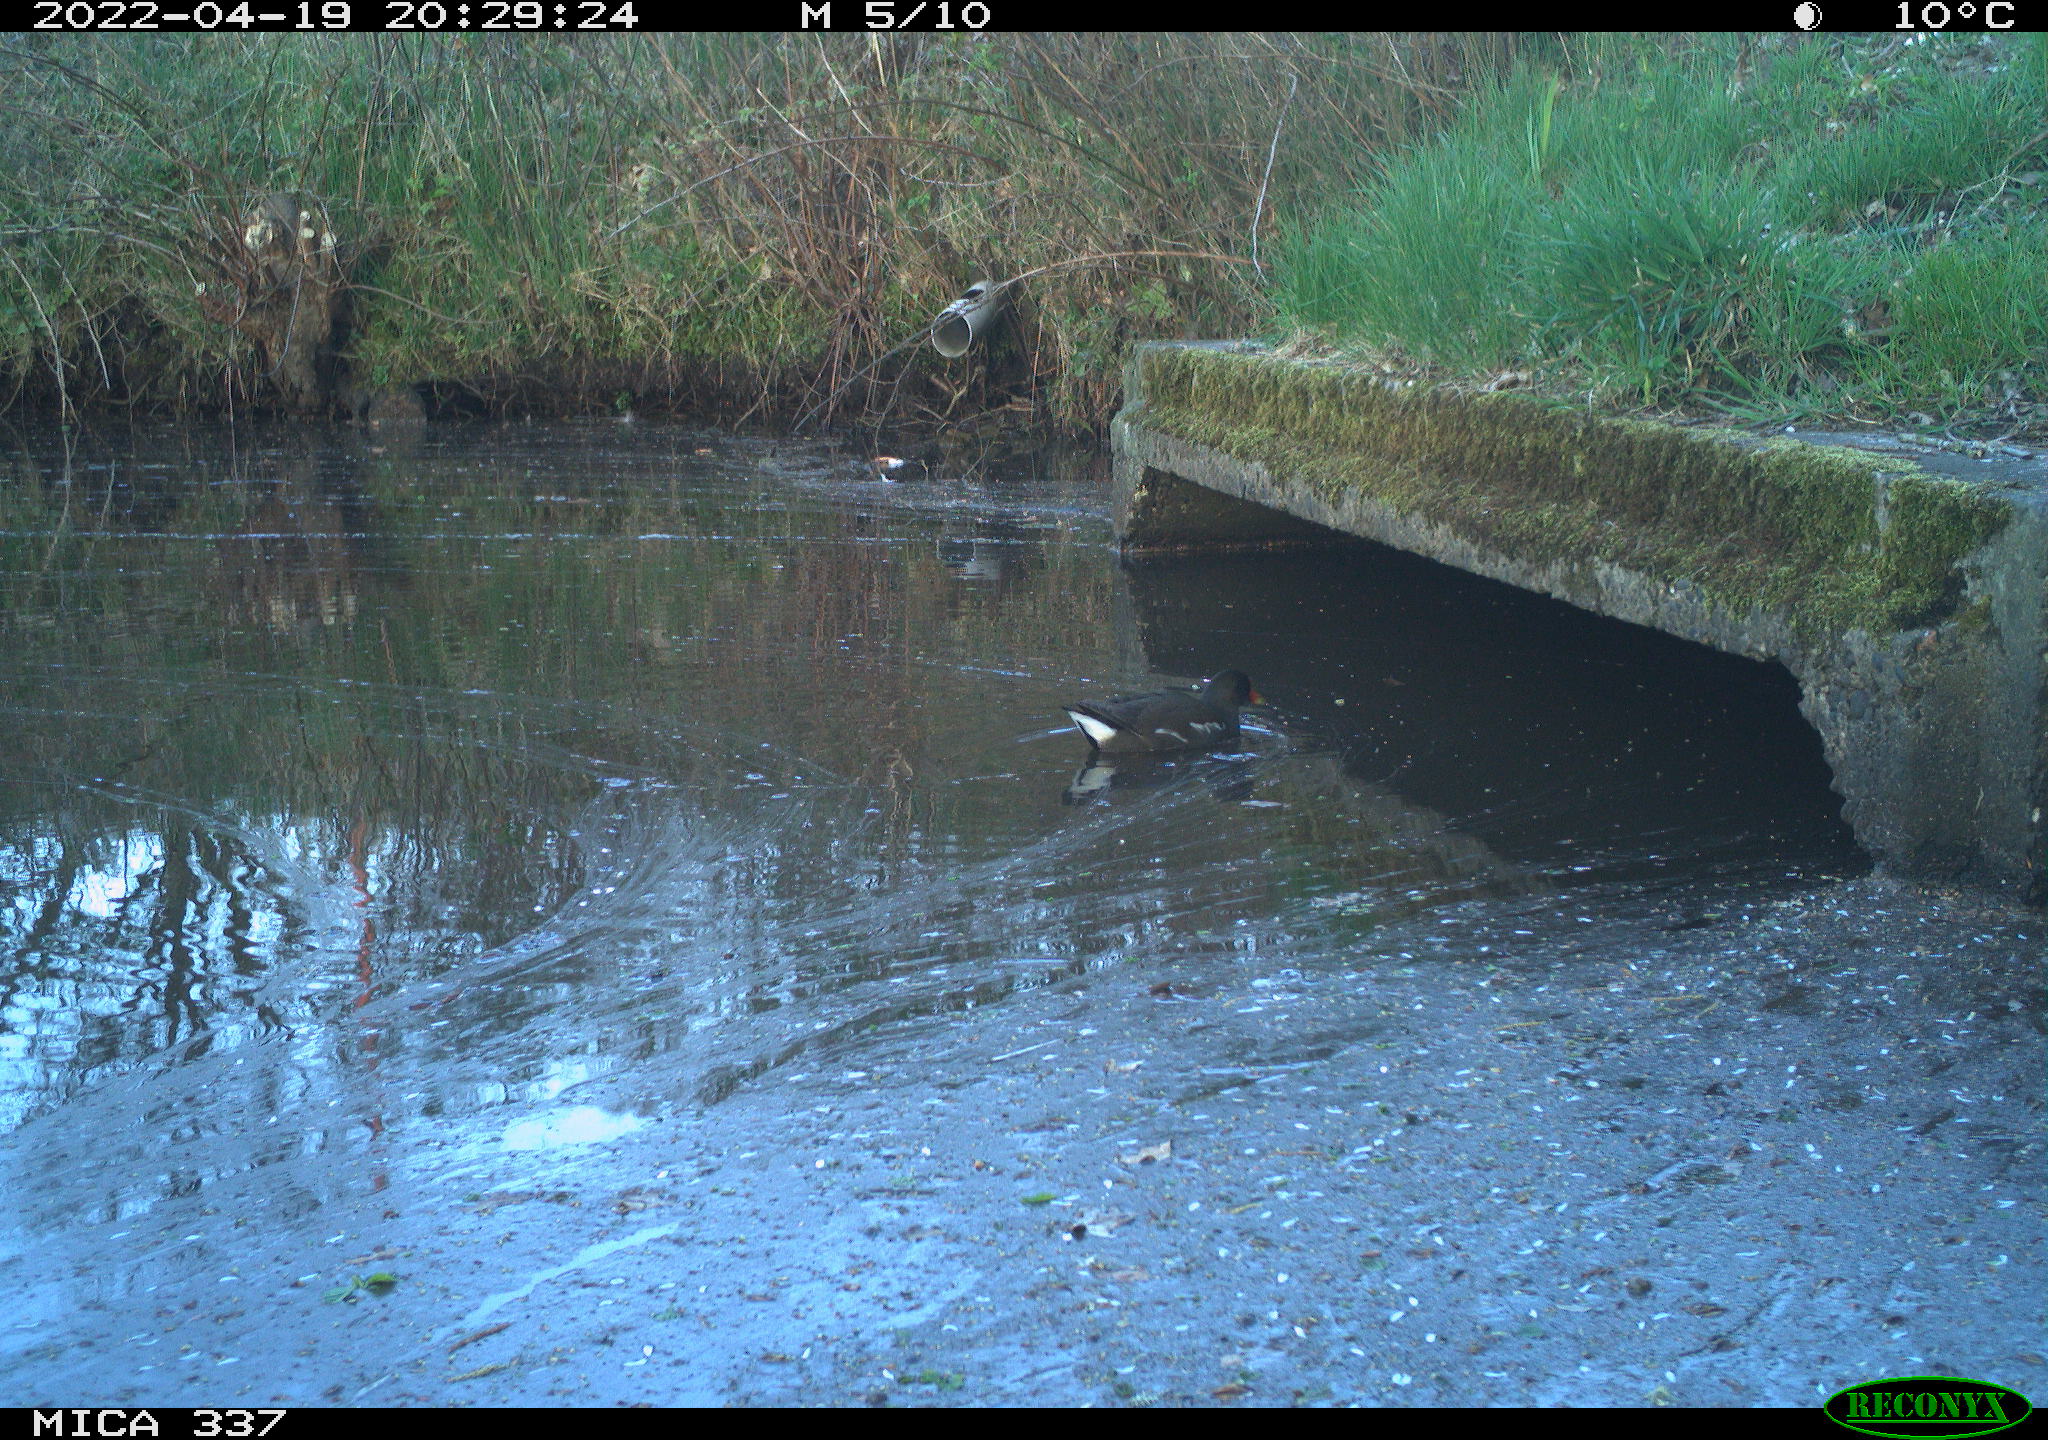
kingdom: Animalia
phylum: Chordata
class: Aves
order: Gruiformes
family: Rallidae
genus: Gallinula
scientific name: Gallinula chloropus
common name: Common moorhen
